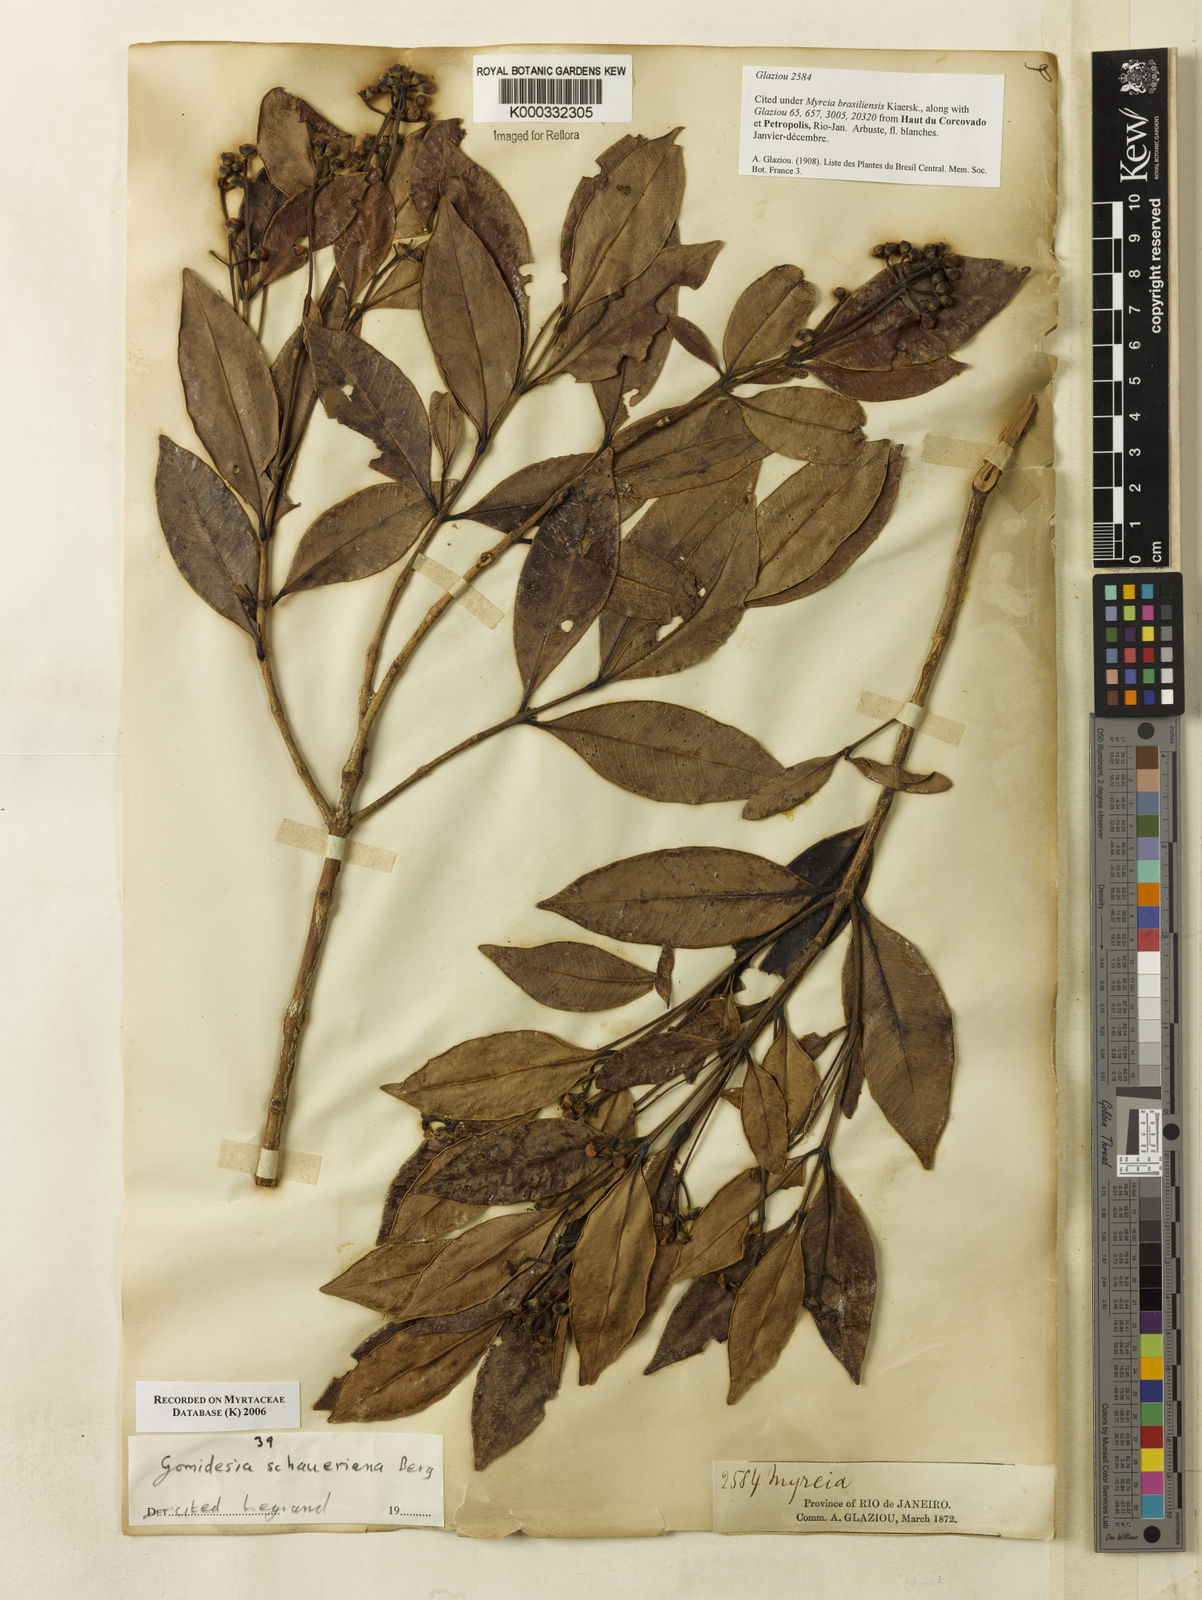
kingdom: Plantae
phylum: Tracheophyta
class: Magnoliopsida
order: Myrtales
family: Myrtaceae
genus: Myrcia
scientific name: Myrcia freyreissiana
